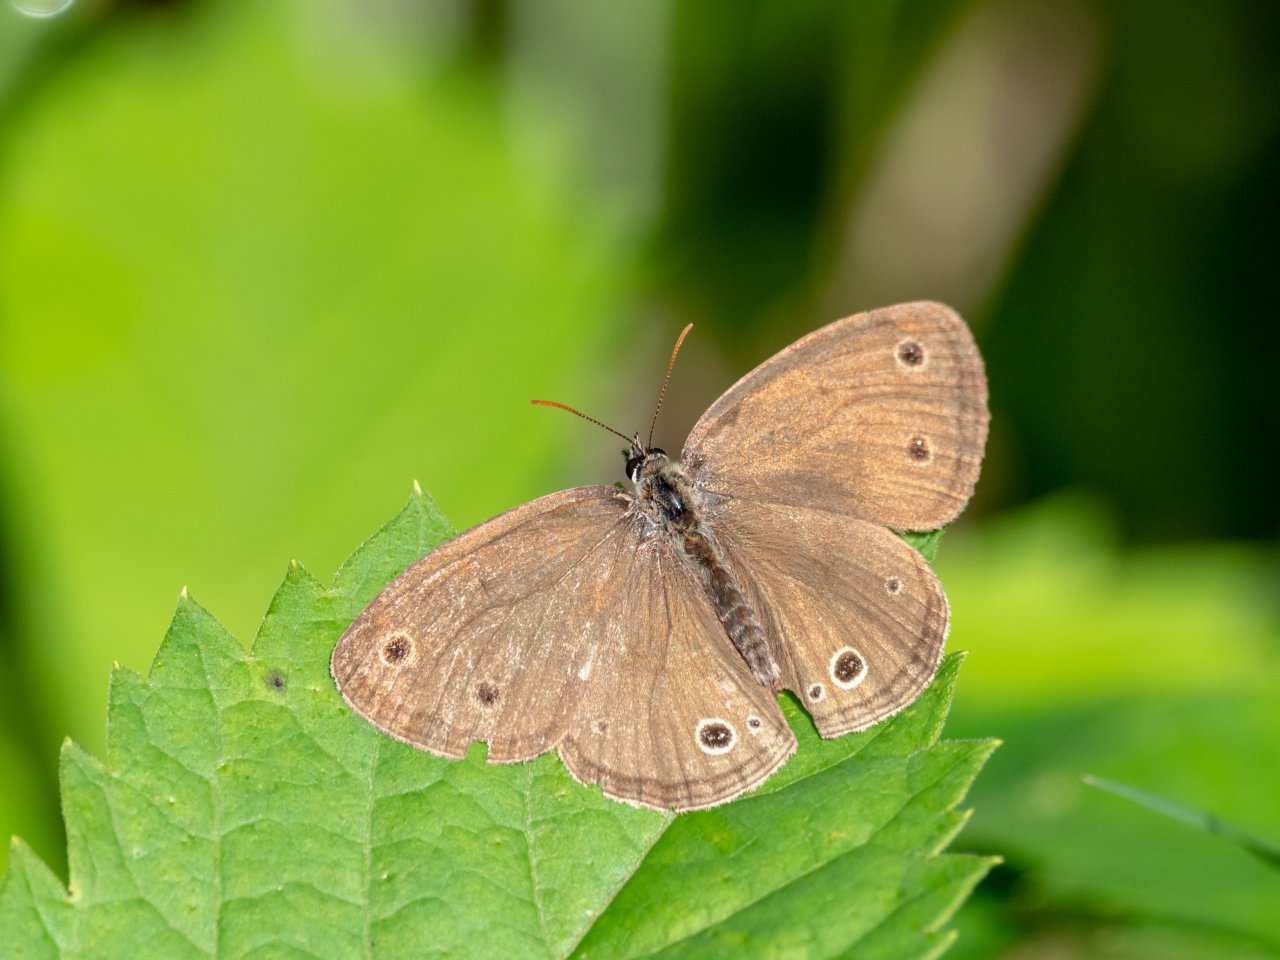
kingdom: Animalia
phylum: Arthropoda
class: Insecta
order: Lepidoptera
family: Nymphalidae
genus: Euptychia
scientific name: Euptychia cymela
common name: Little Wood Satyr
